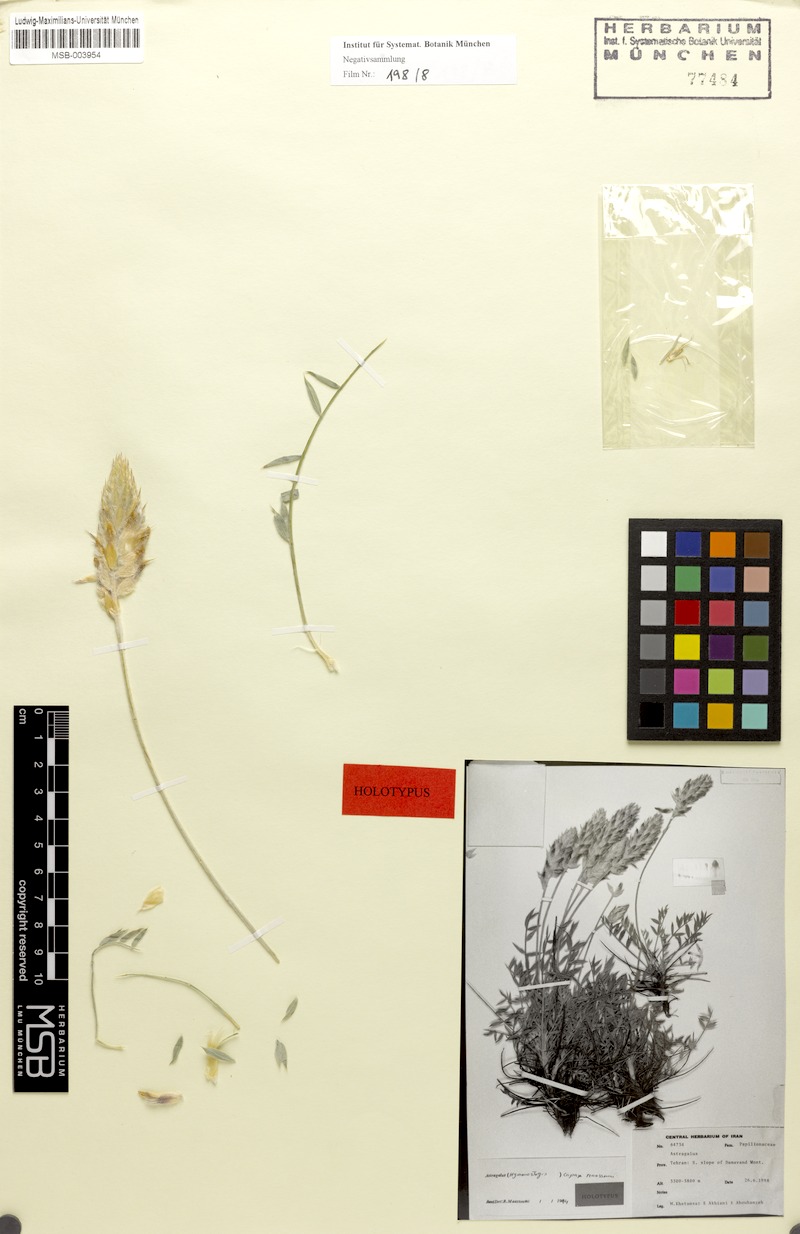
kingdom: Plantae
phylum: Tracheophyta
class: Magnoliopsida
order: Fabales
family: Fabaceae
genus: Astragalus
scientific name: Astragalus capax
